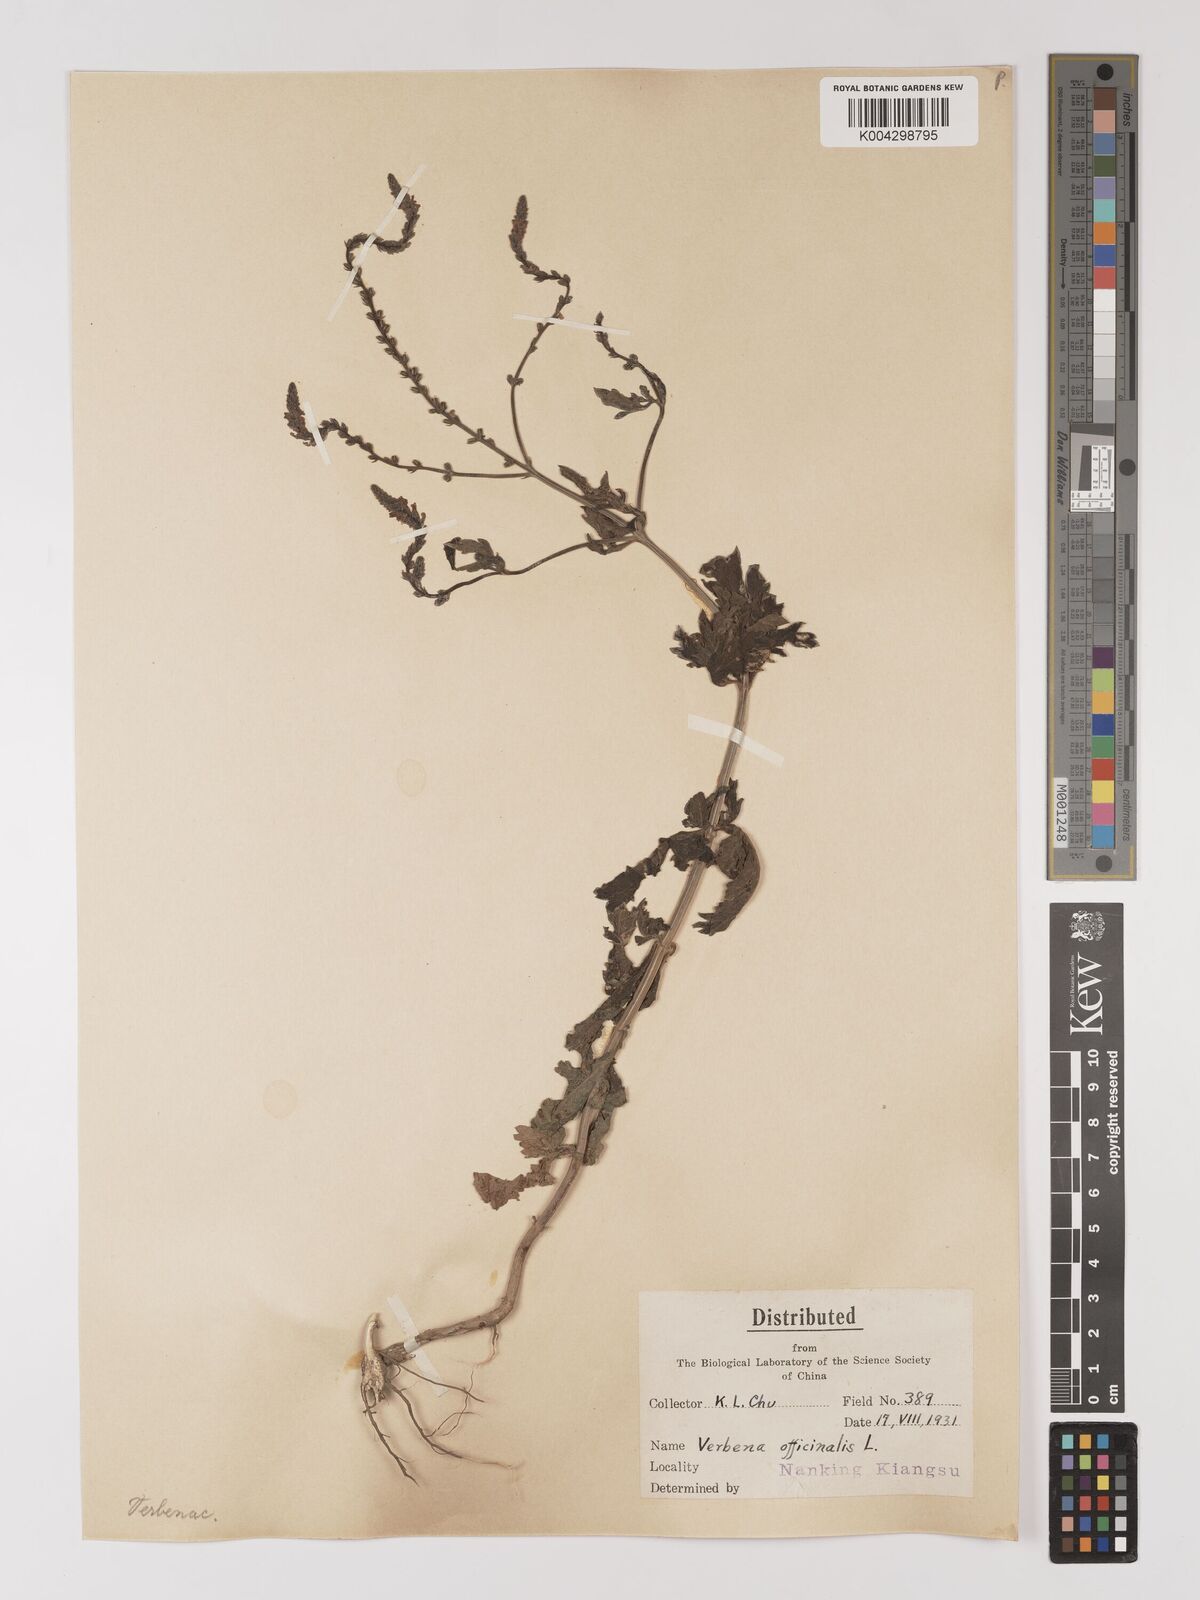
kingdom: Plantae
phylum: Tracheophyta
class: Magnoliopsida
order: Lamiales
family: Verbenaceae
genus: Verbena
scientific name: Verbena officinalis
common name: Vervain
